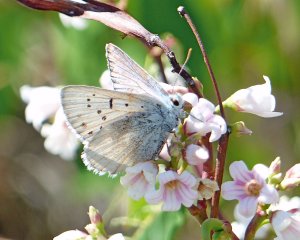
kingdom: Animalia
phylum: Arthropoda
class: Insecta
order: Lepidoptera
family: Lycaenidae
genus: Lycaena
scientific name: Lycaena heteronea
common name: Blue Copper
